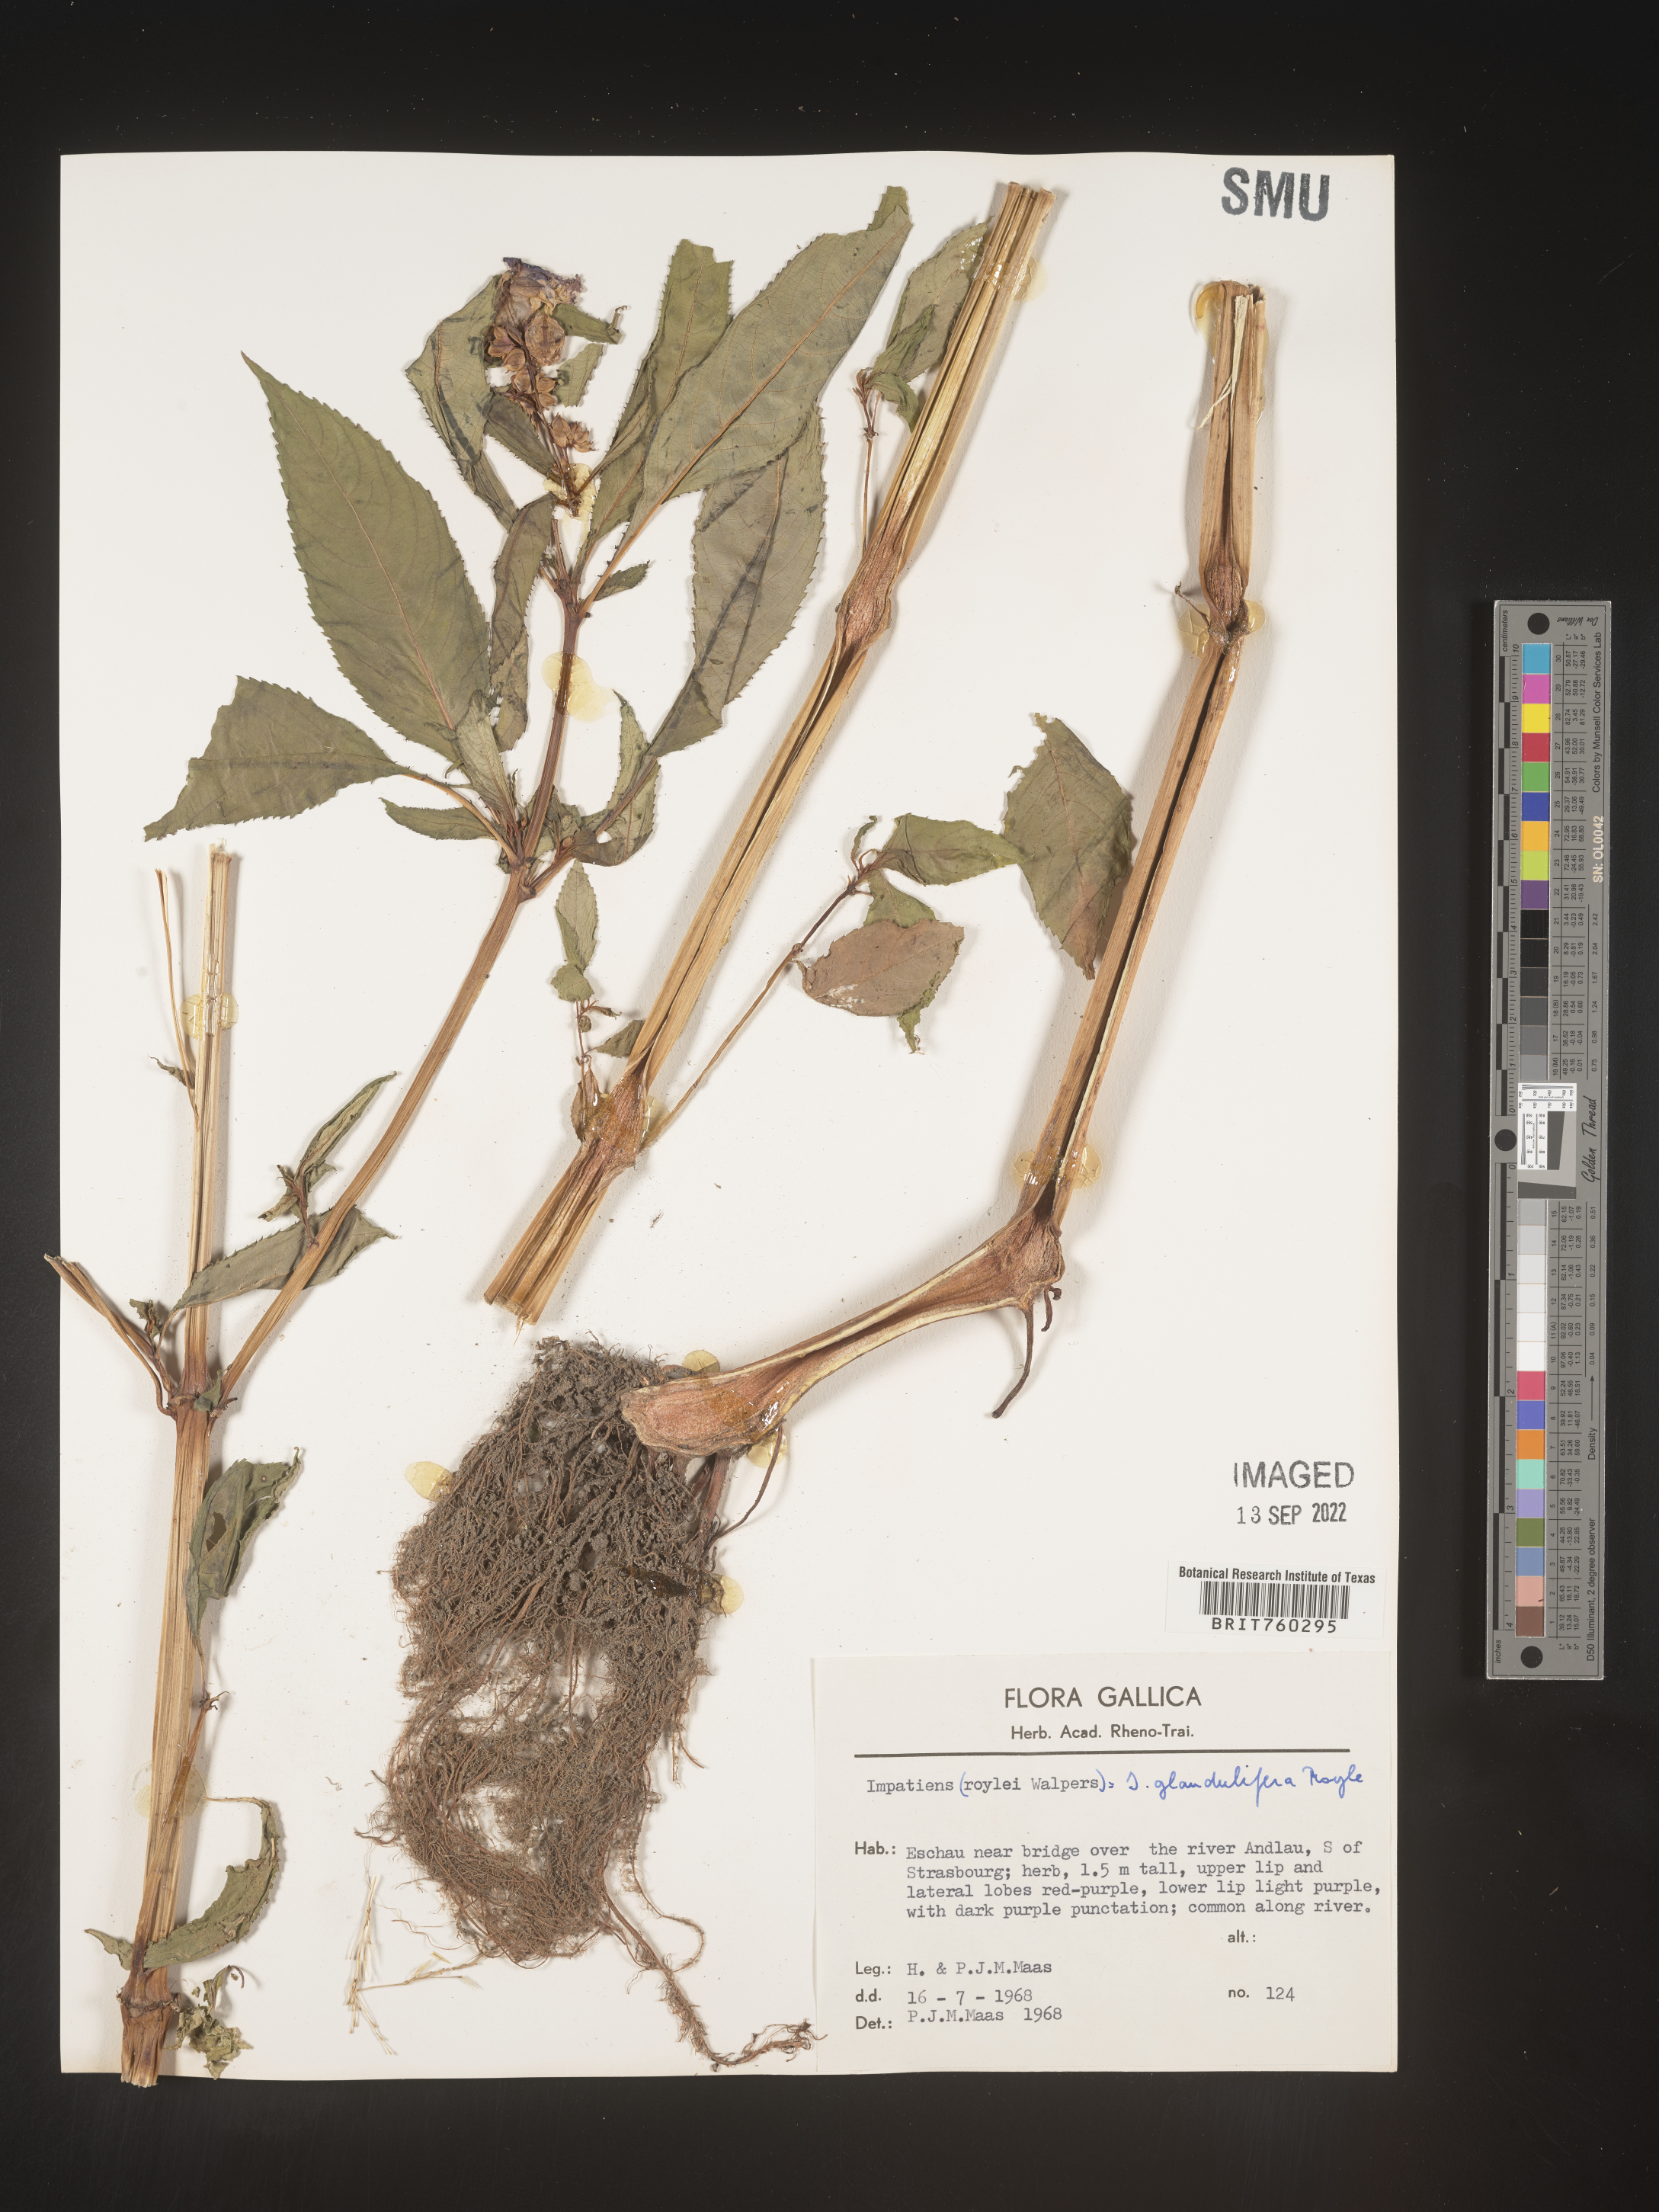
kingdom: Plantae
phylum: Tracheophyta
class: Magnoliopsida
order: Ericales
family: Balsaminaceae
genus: Impatiens
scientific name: Impatiens
